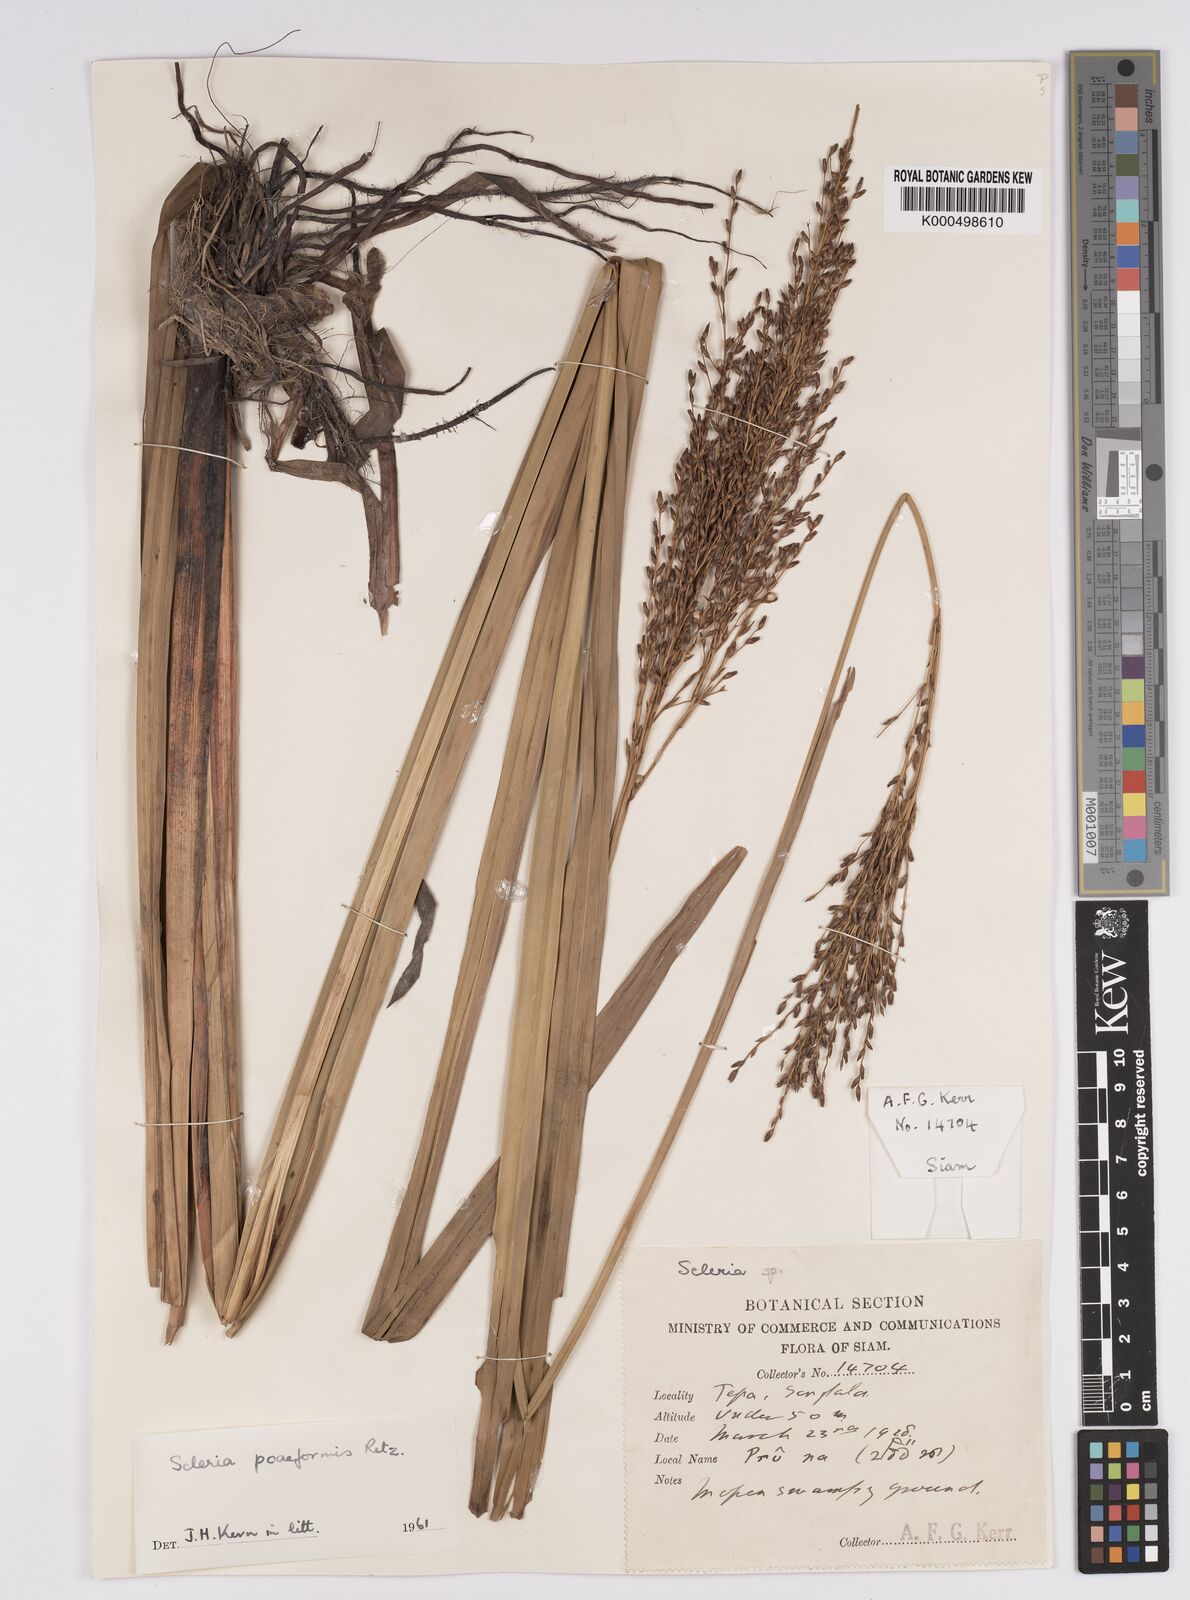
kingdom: Plantae
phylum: Tracheophyta
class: Liliopsida
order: Poales
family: Cyperaceae
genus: Scleria
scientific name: Scleria poiformis
